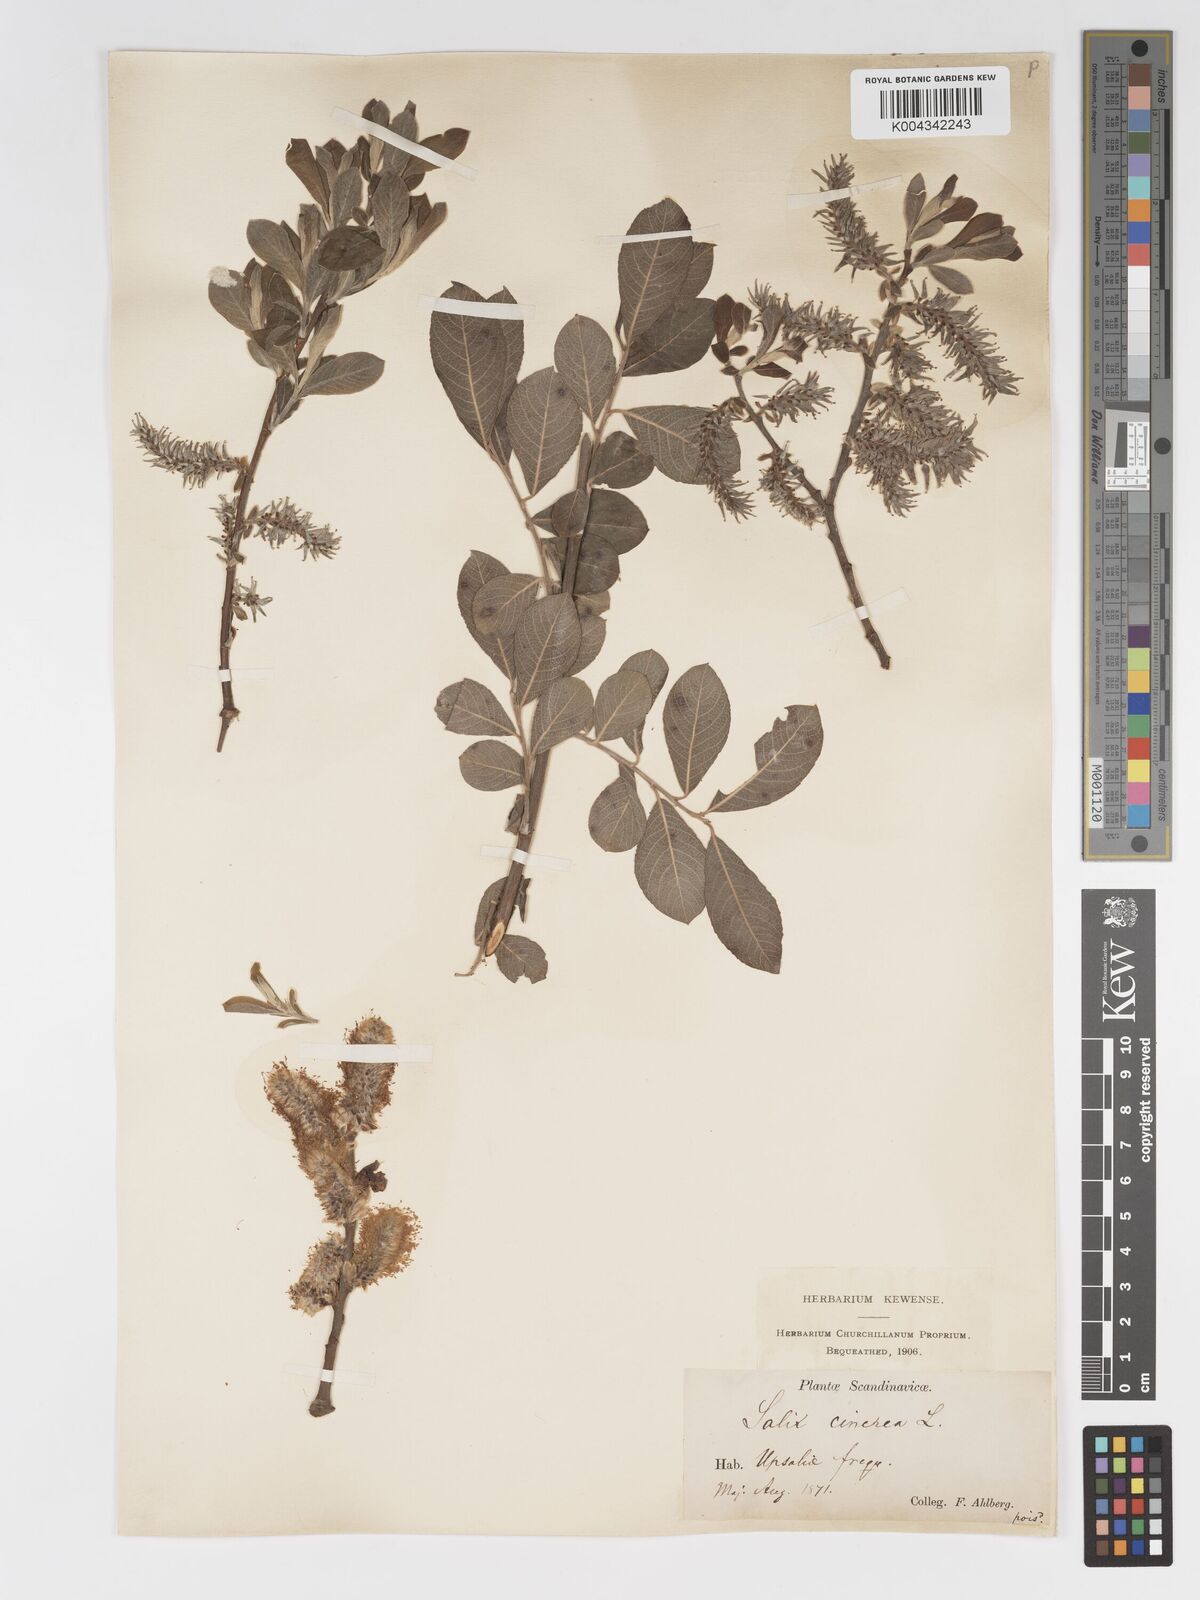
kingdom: Plantae
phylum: Tracheophyta
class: Magnoliopsida
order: Malpighiales
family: Salicaceae
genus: Salix
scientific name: Salix
